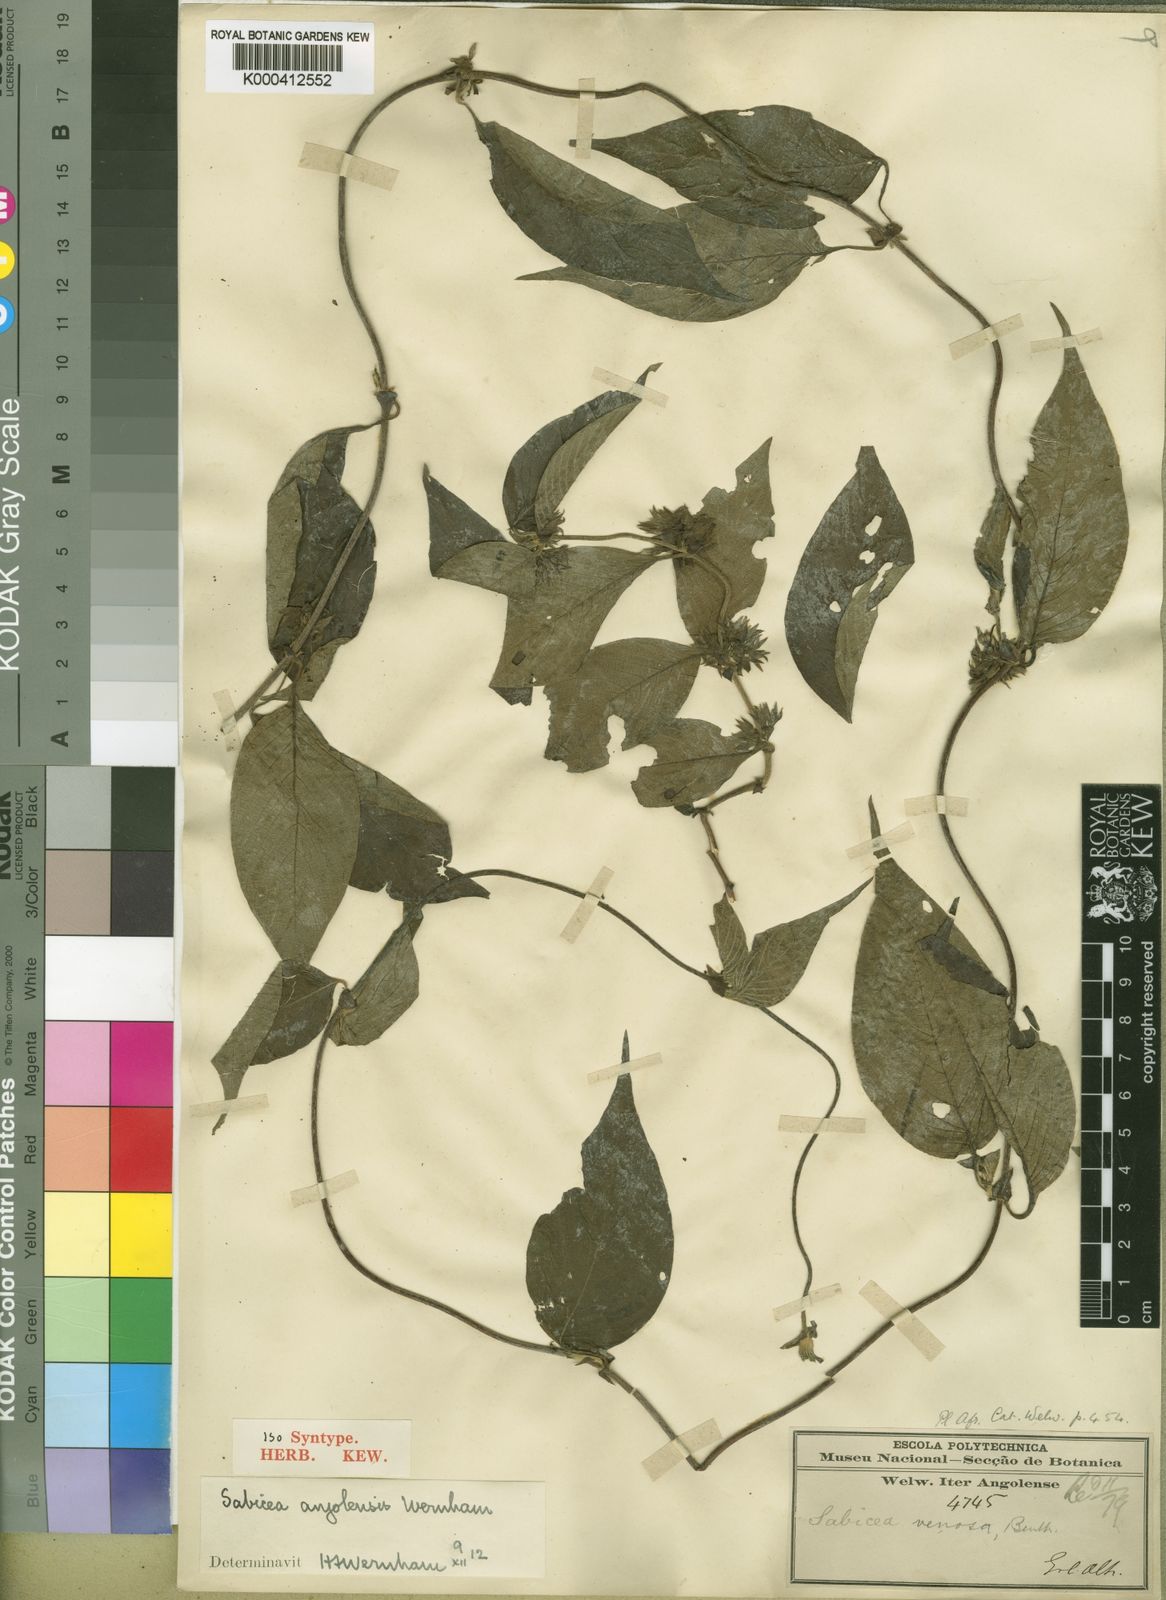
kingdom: Plantae
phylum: Tracheophyta
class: Magnoliopsida
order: Gentianales
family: Rubiaceae
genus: Sabicea
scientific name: Sabicea venosa
